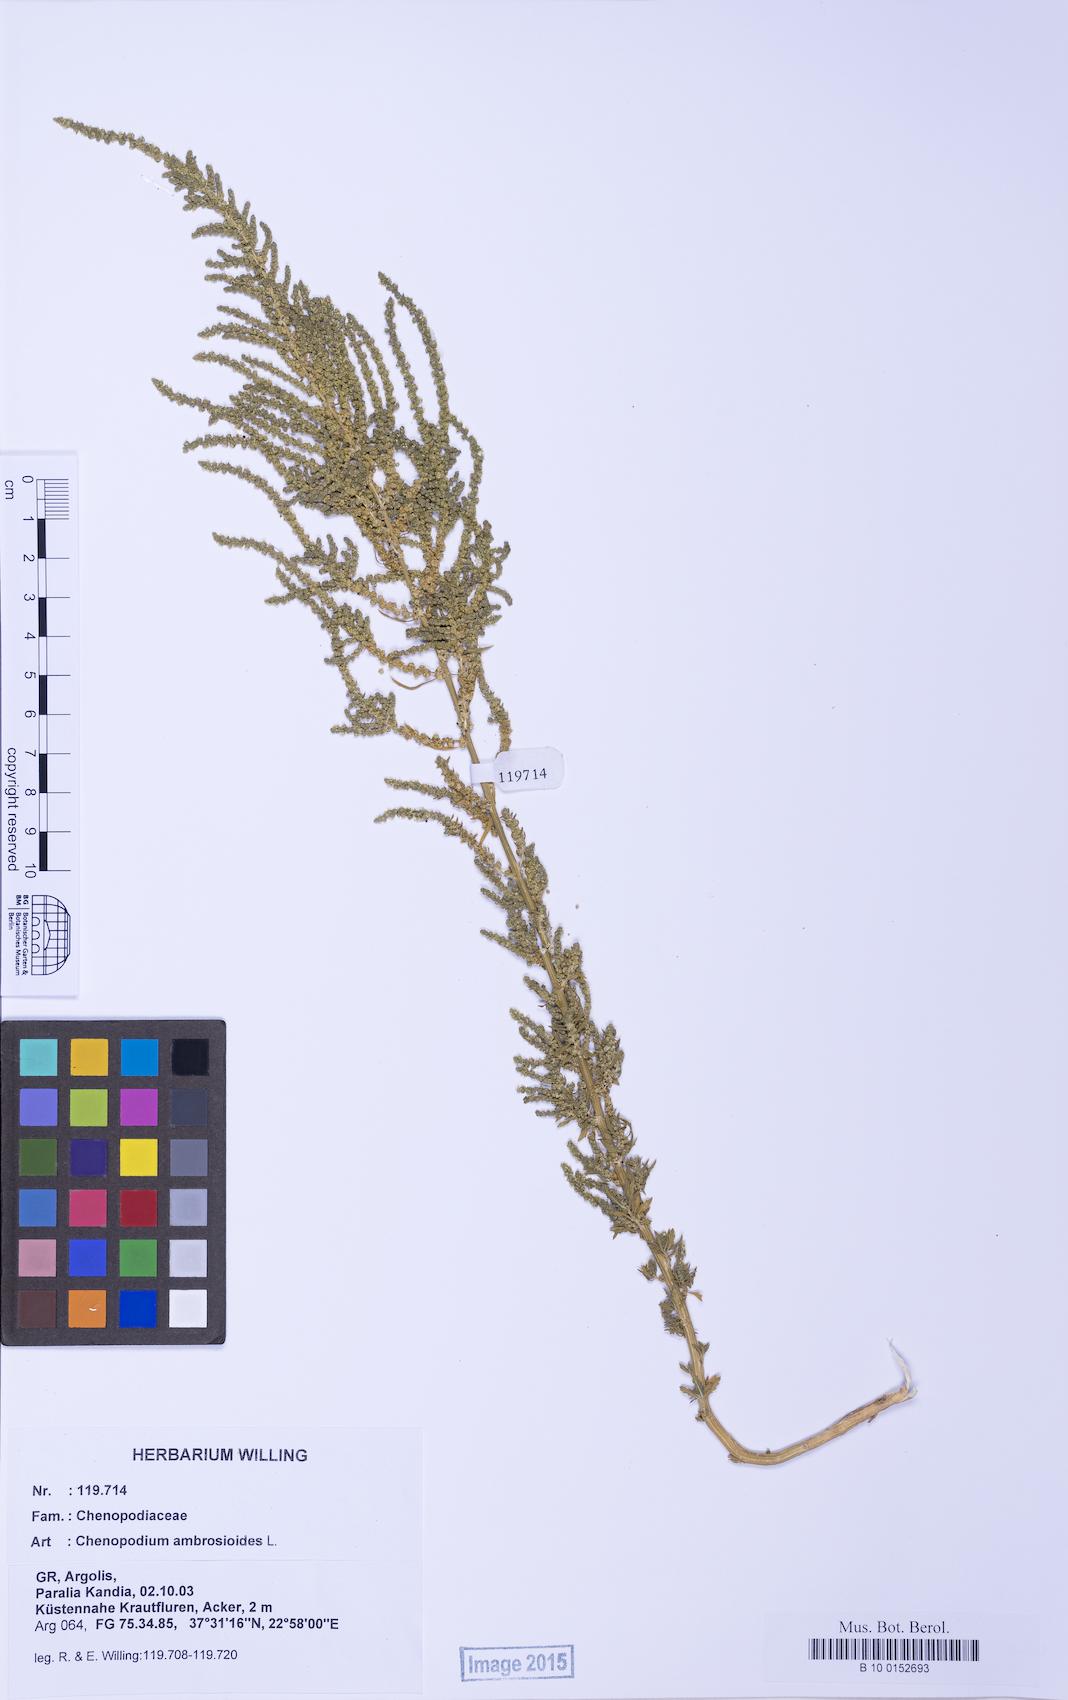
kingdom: Plantae
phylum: Tracheophyta
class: Magnoliopsida
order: Caryophyllales
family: Amaranthaceae
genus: Dysphania
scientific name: Dysphania ambrosioides
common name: Wormseed
